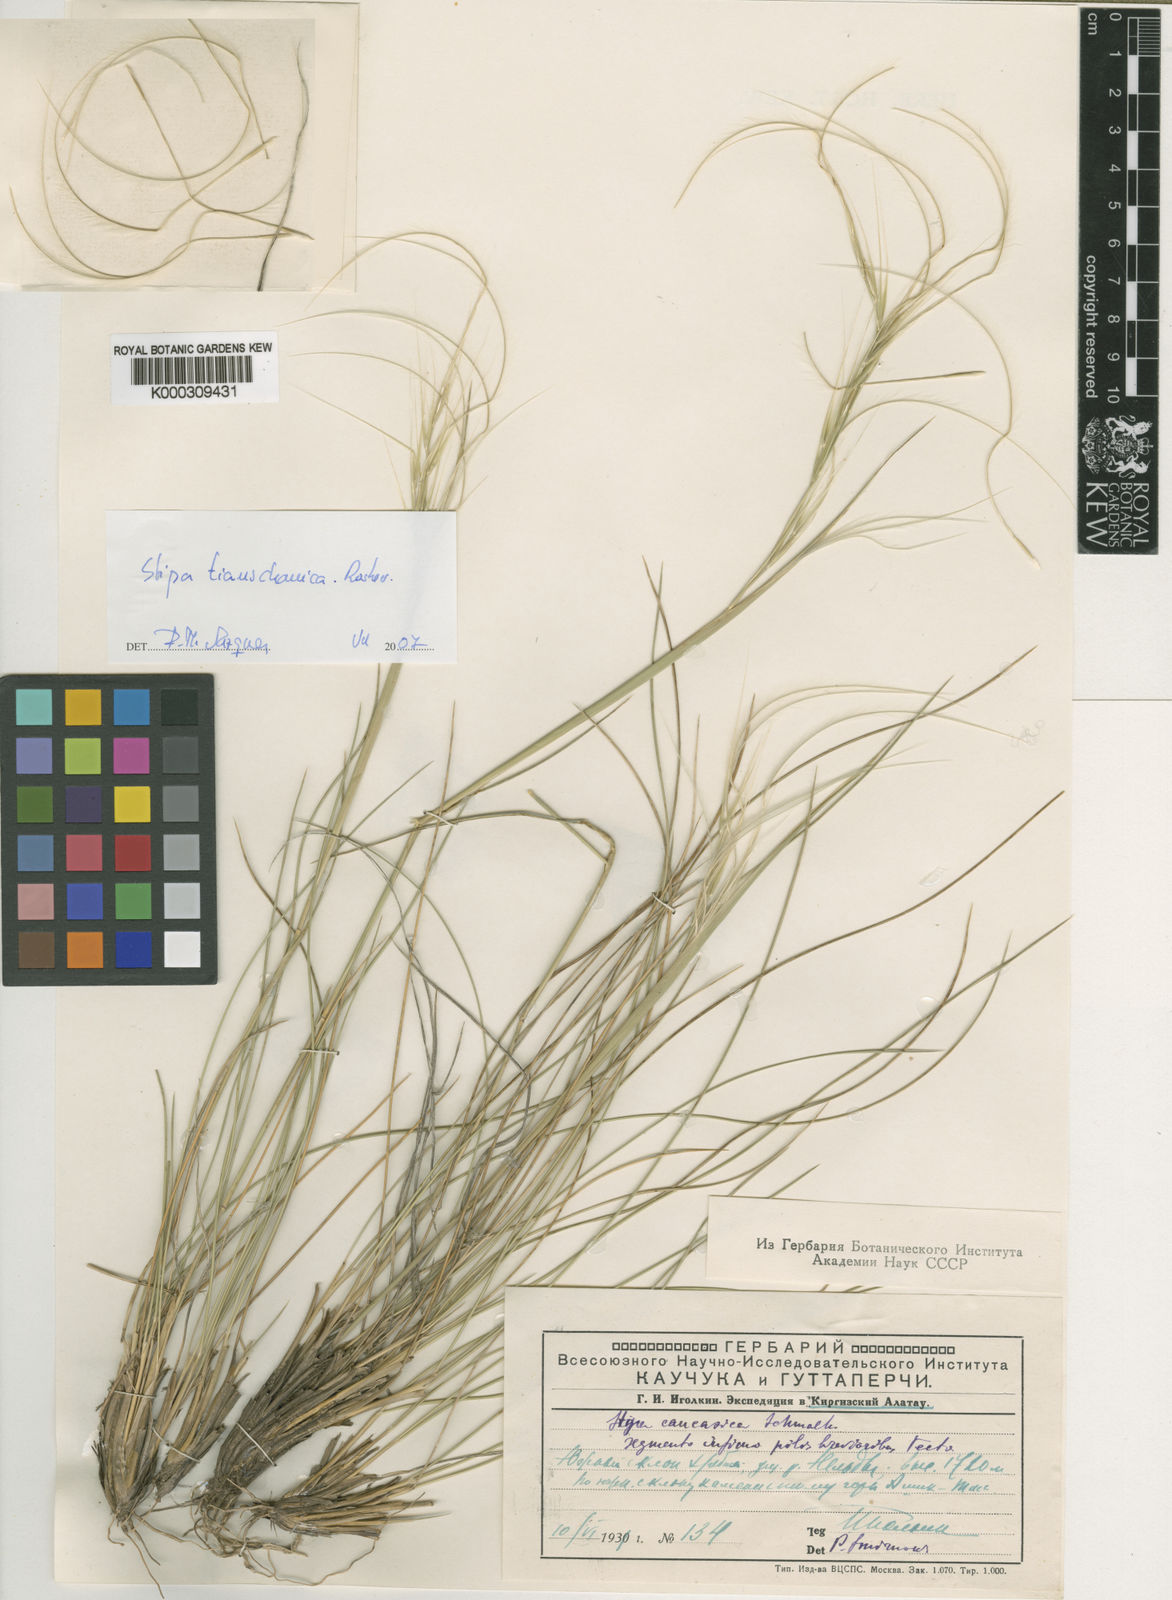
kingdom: Plantae
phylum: Tracheophyta
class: Liliopsida
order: Poales
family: Poaceae
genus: Stipa
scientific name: Stipa caucasica
